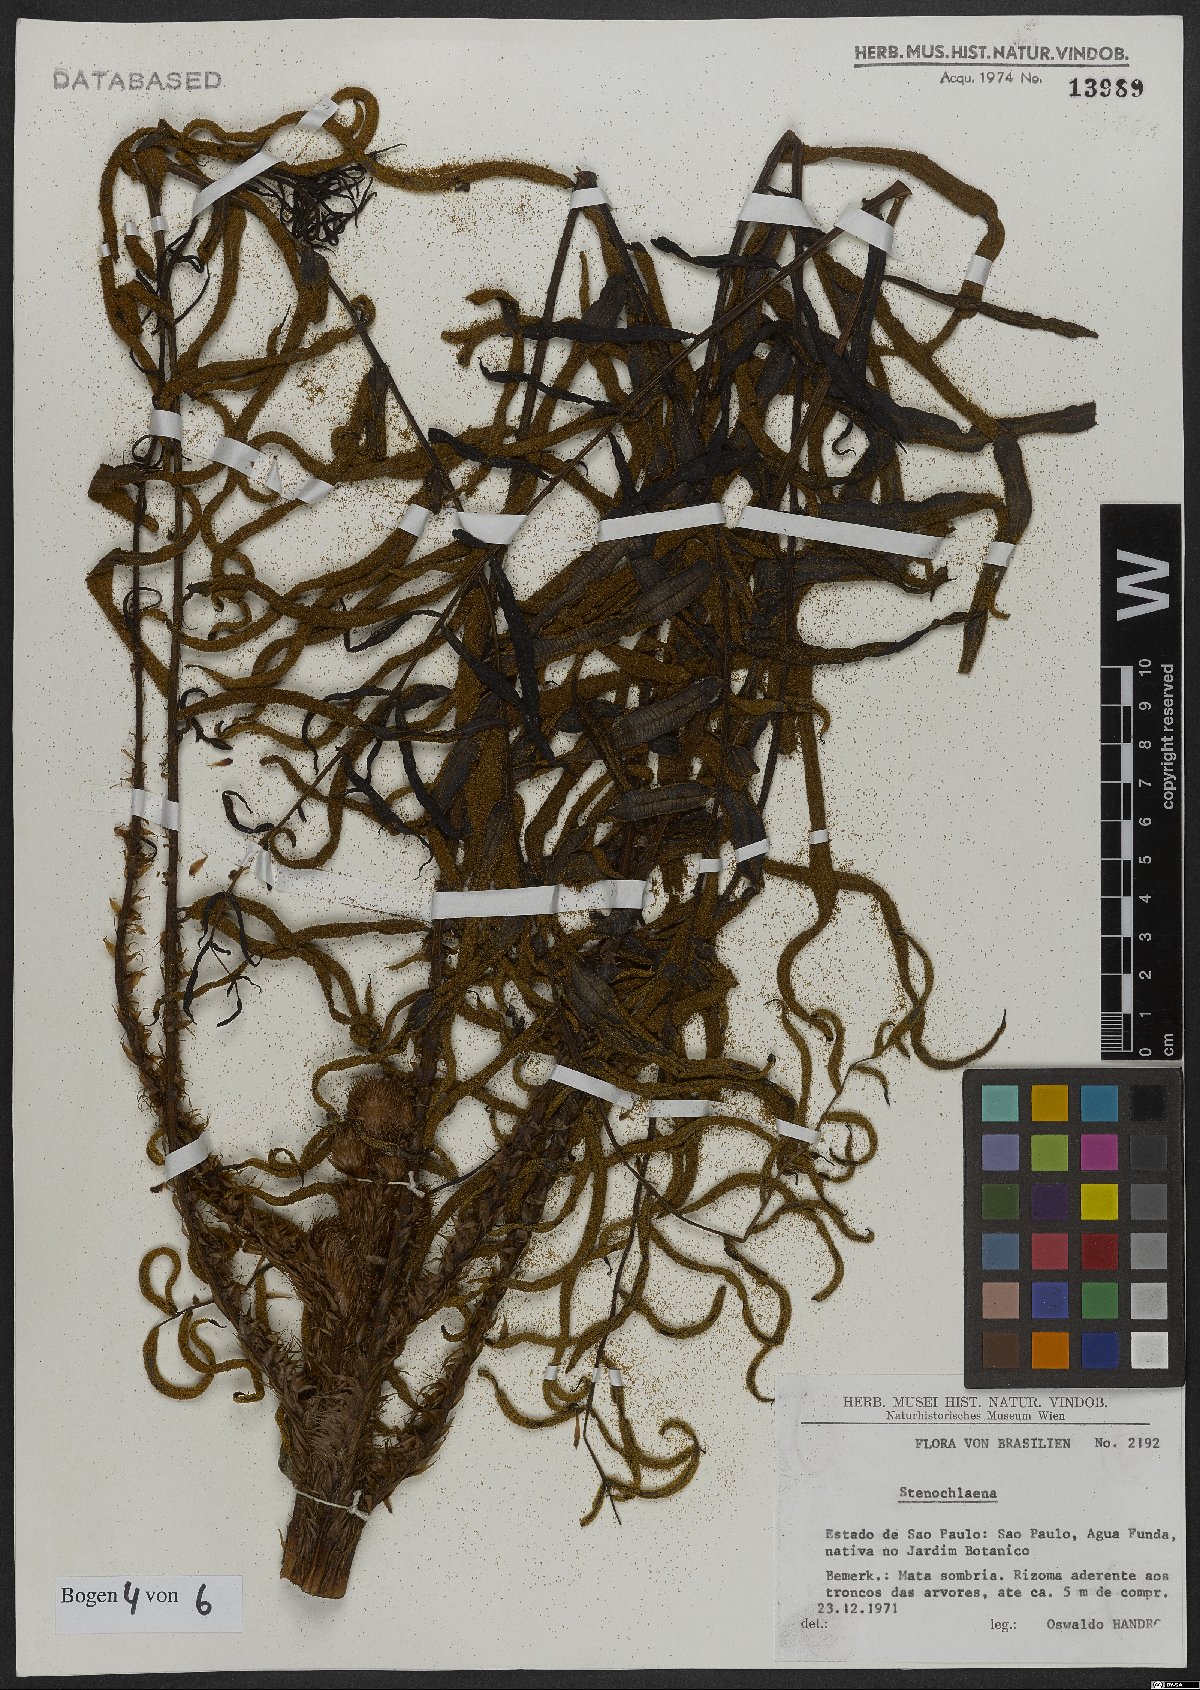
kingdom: Plantae
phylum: Tracheophyta
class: Polypodiopsida
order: Polypodiales
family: Blechnaceae
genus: Stenochlaena
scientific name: Stenochlaena
